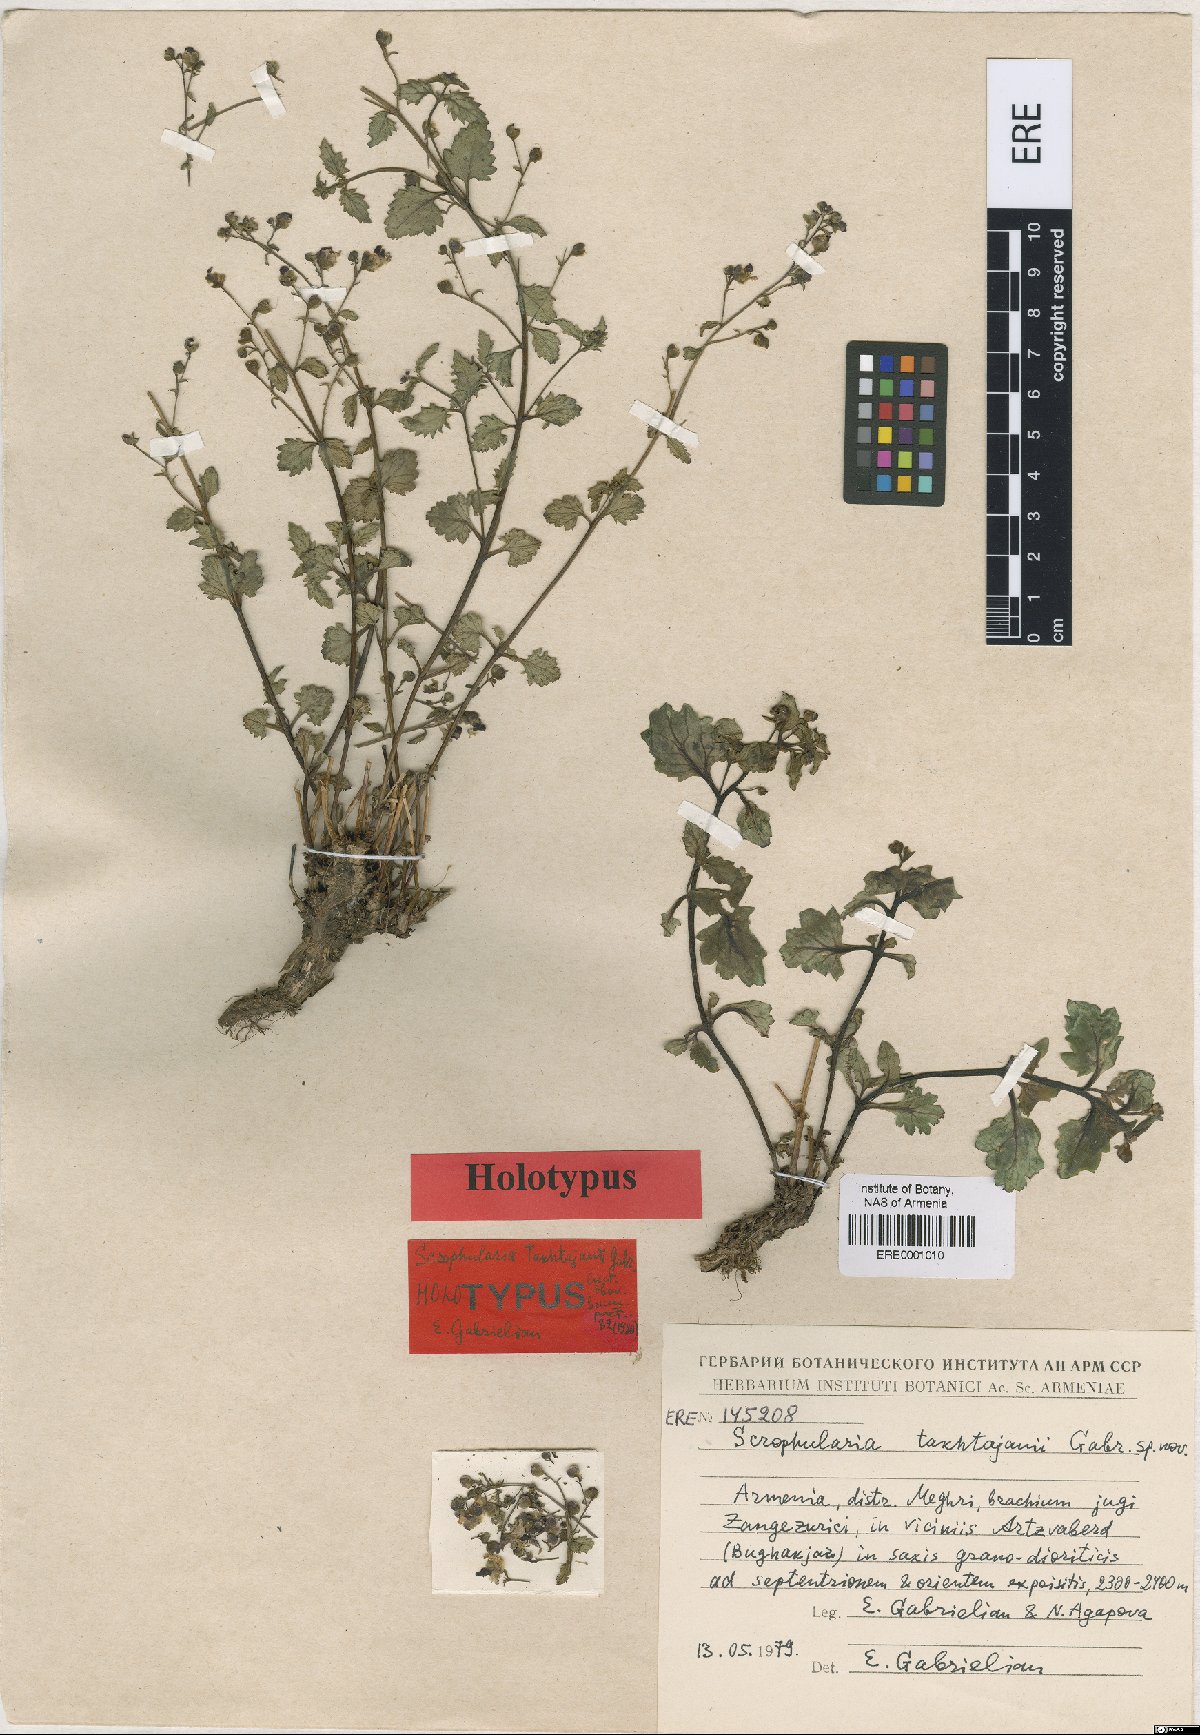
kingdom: Plantae
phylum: Tracheophyta
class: Magnoliopsida
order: Lamiales
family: Scrophulariaceae
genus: Scrophularia
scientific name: Scrophularia takhtajanii
